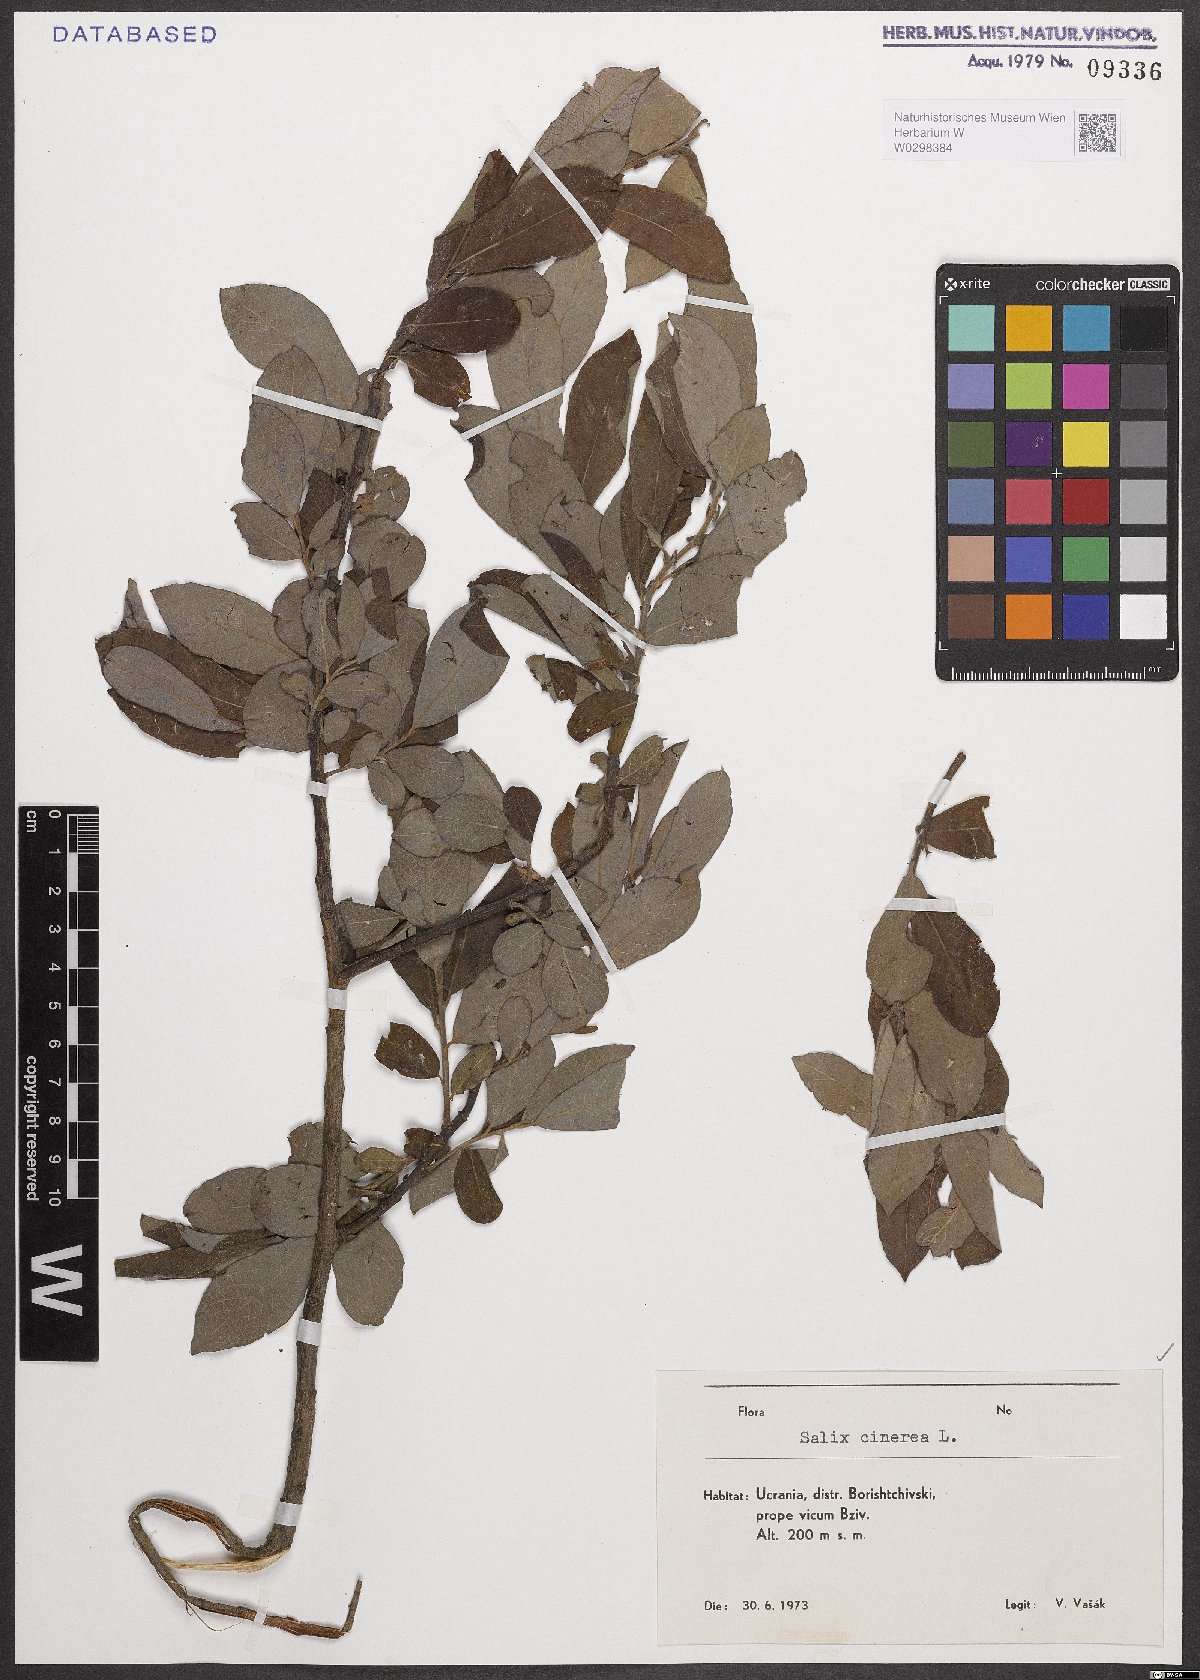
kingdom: Plantae
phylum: Tracheophyta
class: Magnoliopsida
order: Malpighiales
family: Salicaceae
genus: Salix
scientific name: Salix cinerea
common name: Common sallow
